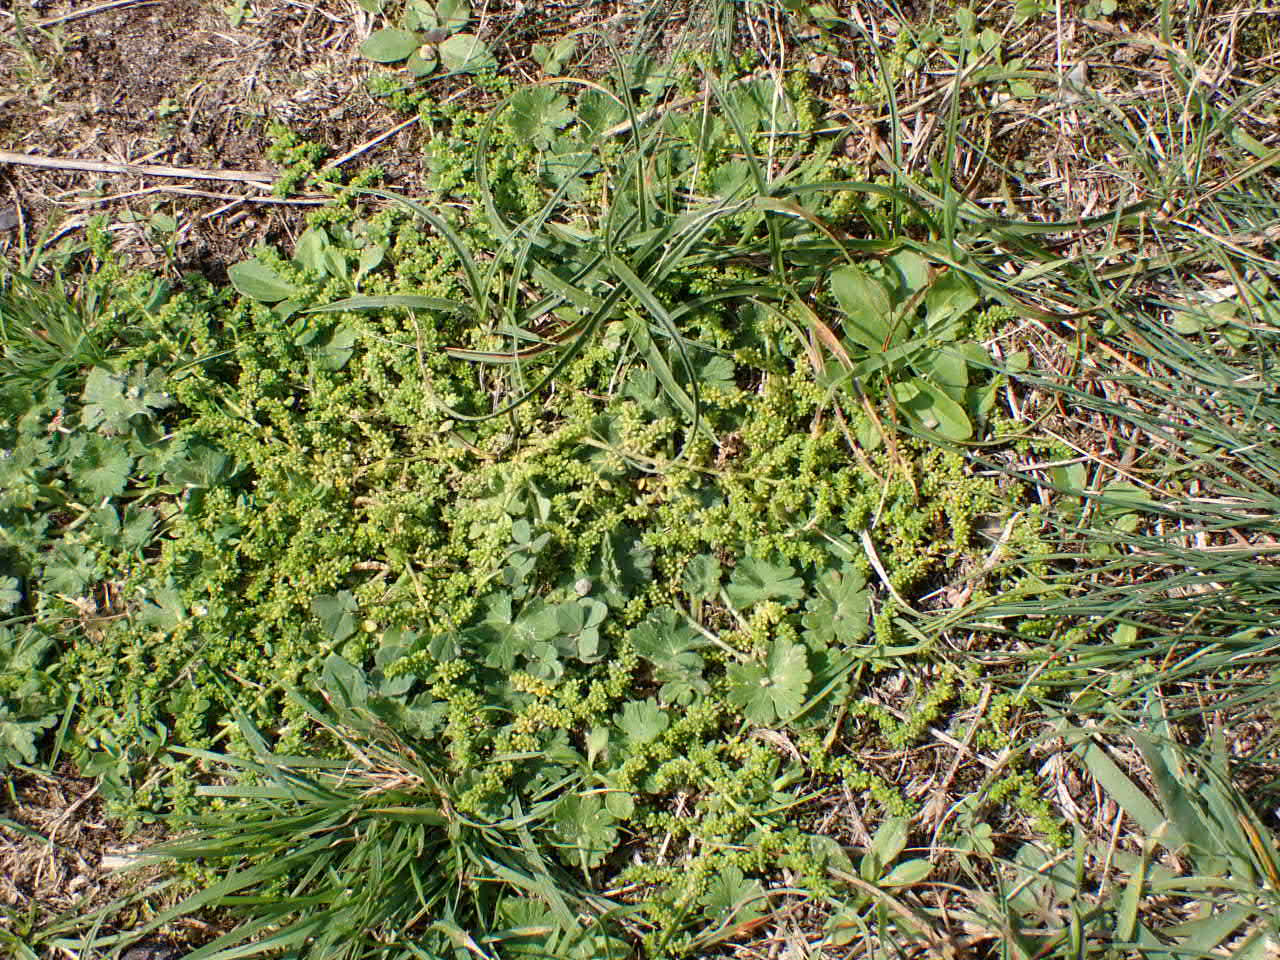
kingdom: Plantae
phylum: Tracheophyta
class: Magnoliopsida
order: Caryophyllales
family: Caryophyllaceae
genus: Herniaria
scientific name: Herniaria glabra
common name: Brudurt
